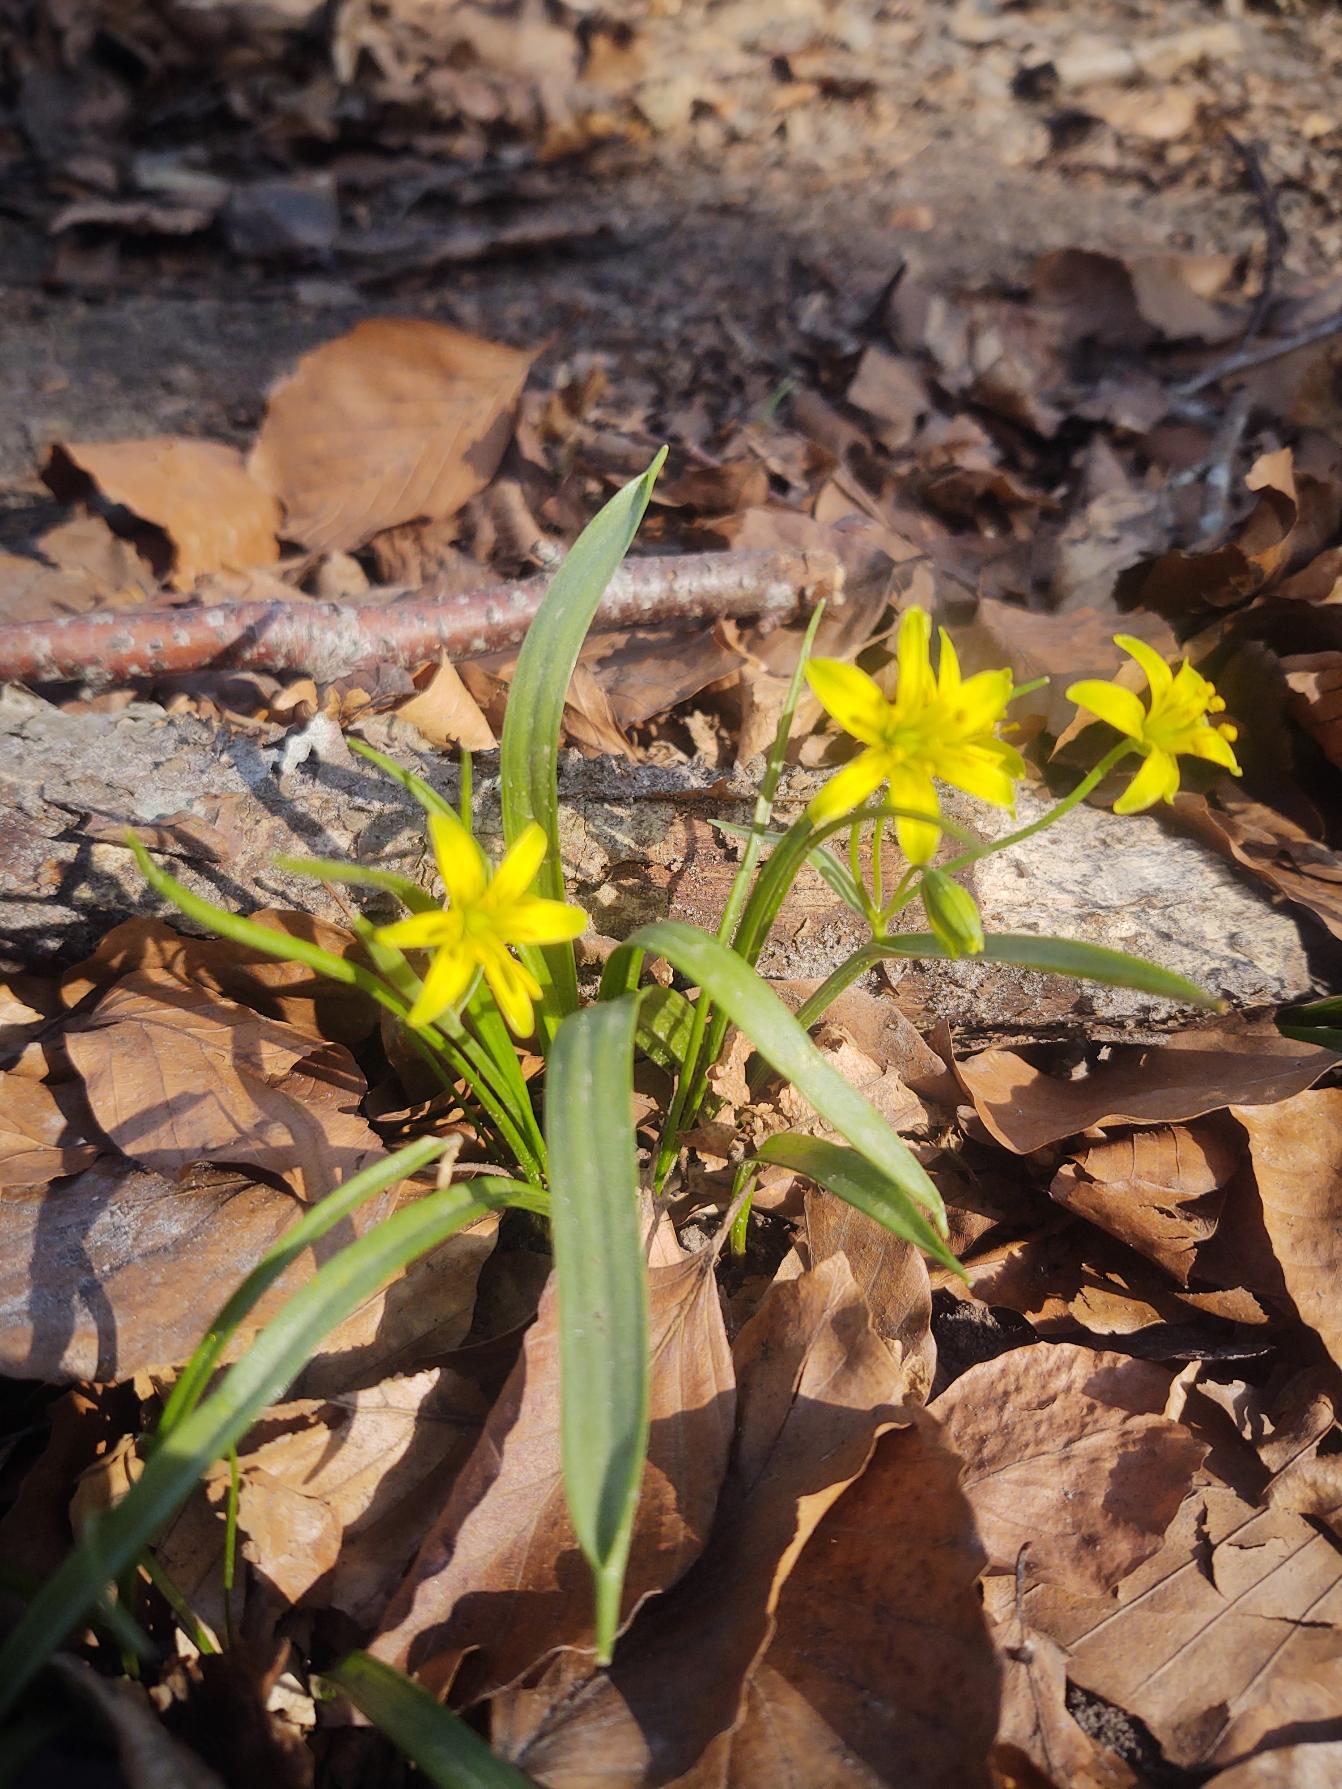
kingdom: Plantae
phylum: Tracheophyta
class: Liliopsida
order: Liliales
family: Liliaceae
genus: Gagea
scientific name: Gagea lutea
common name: Almindelig guldstjerne
